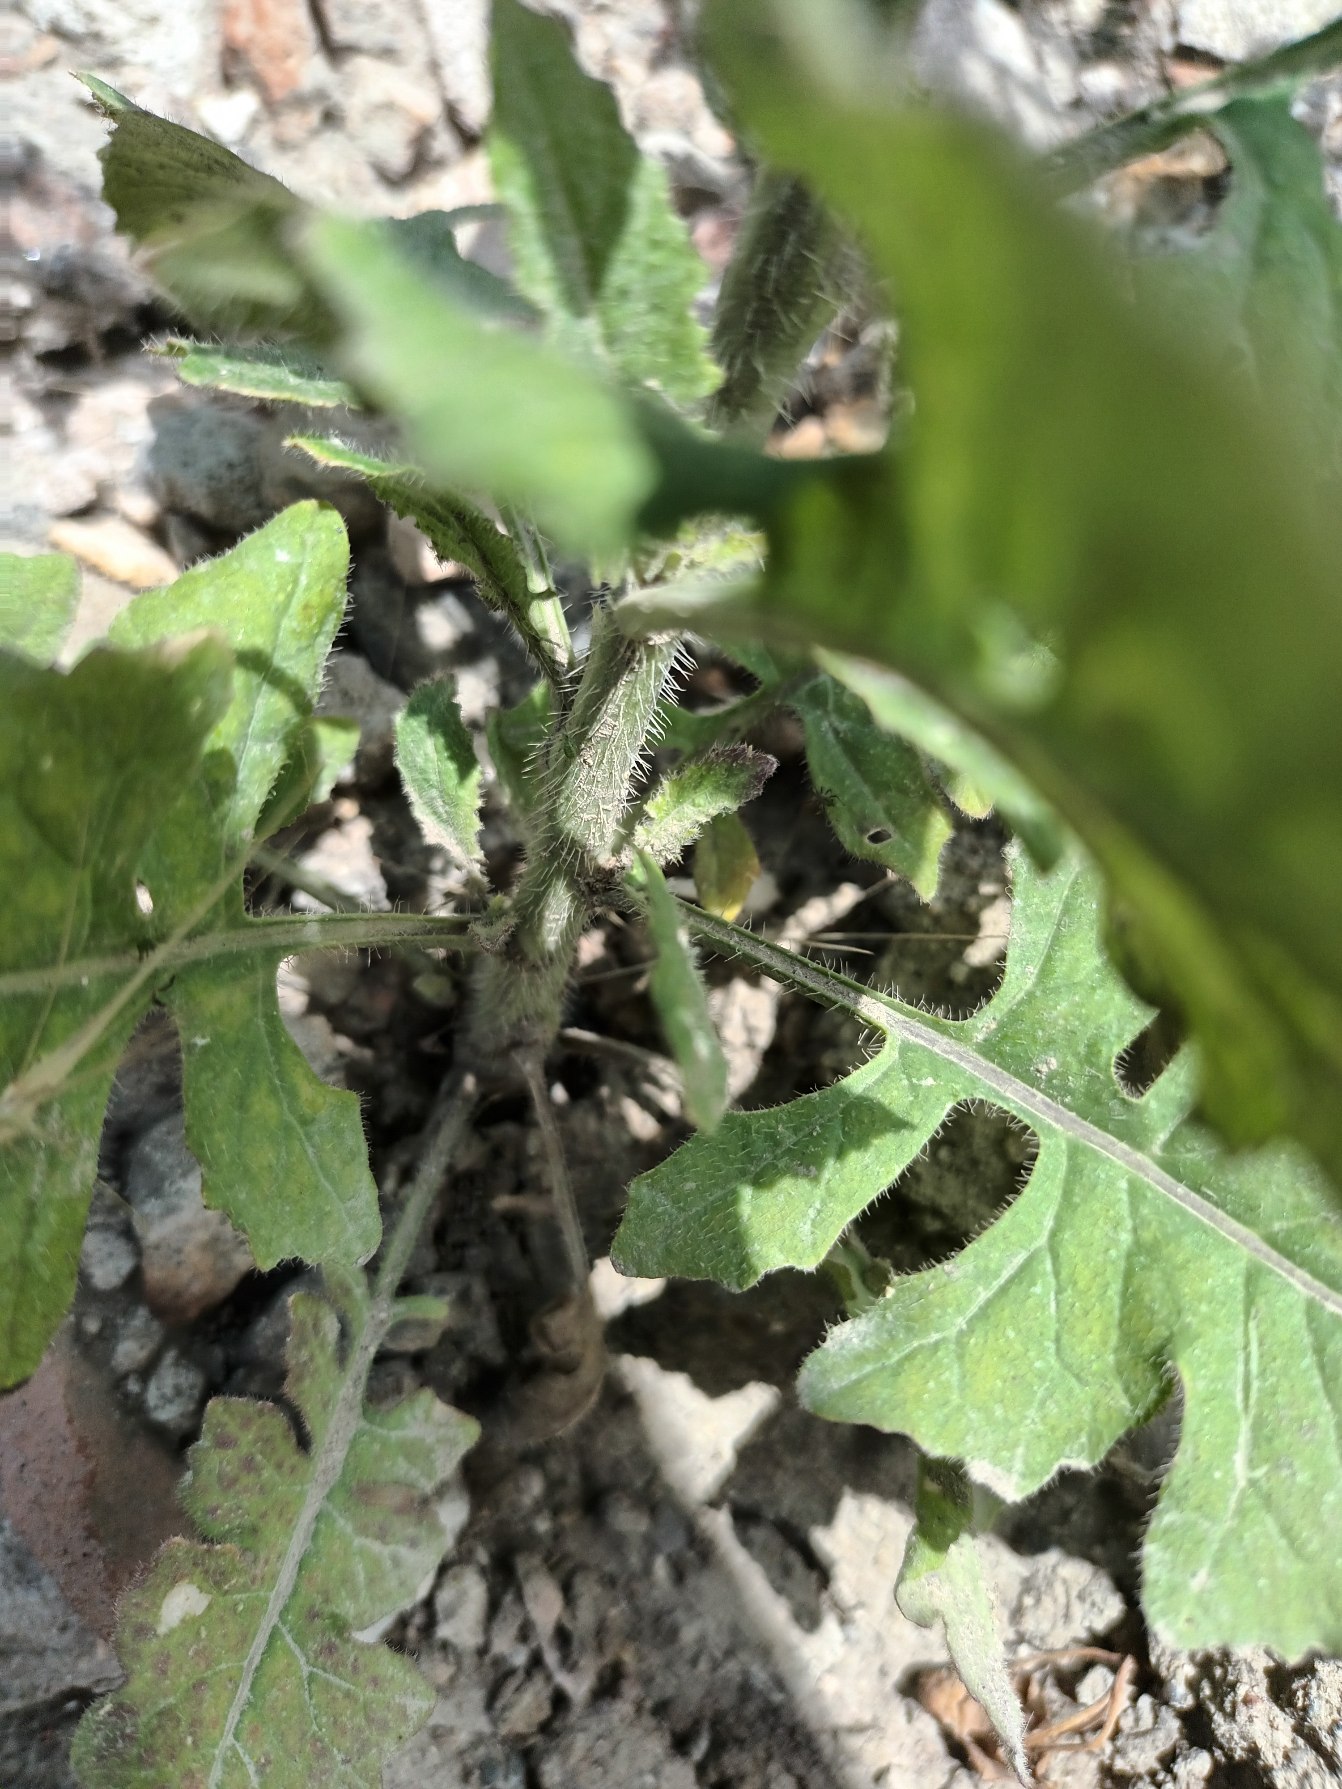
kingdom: Plantae
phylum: Tracheophyta
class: Magnoliopsida
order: Brassicales
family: Brassicaceae
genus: Sisymbrium
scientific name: Sisymbrium loeselii
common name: Stivhåret vejsennep
